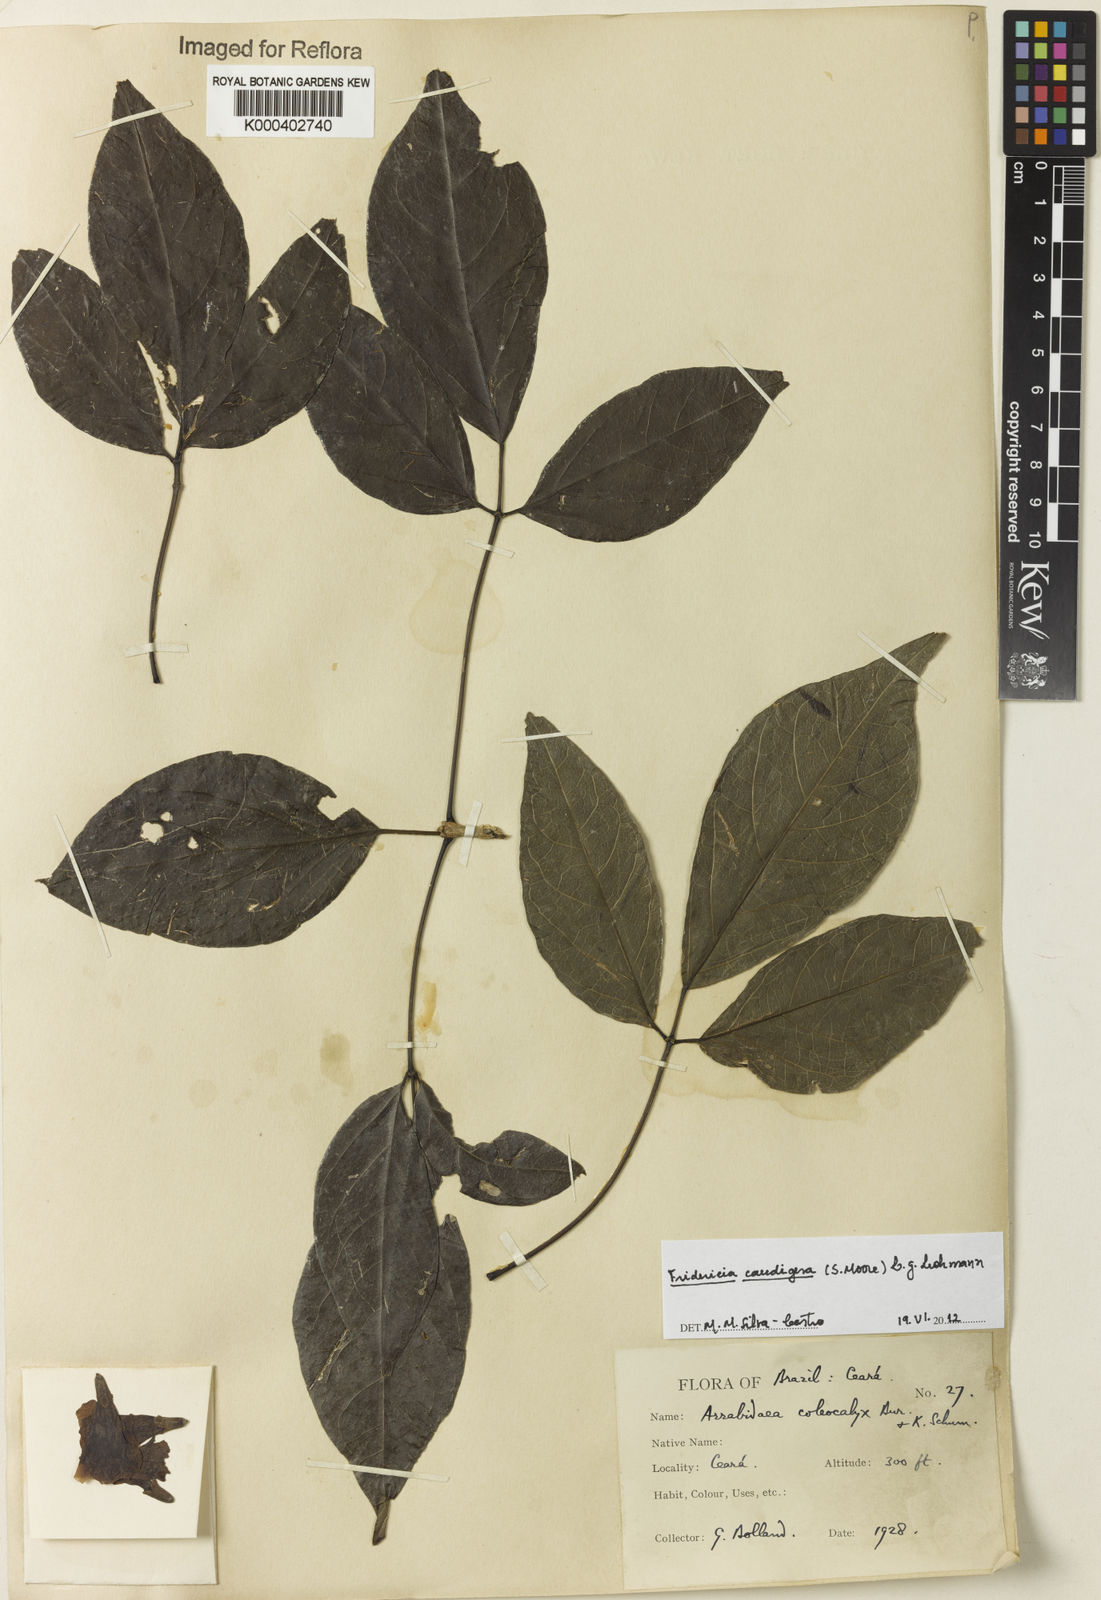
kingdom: Plantae
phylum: Tracheophyta
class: Magnoliopsida
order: Lamiales
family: Bignoniaceae
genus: Fridericia
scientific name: Fridericia caudigera
